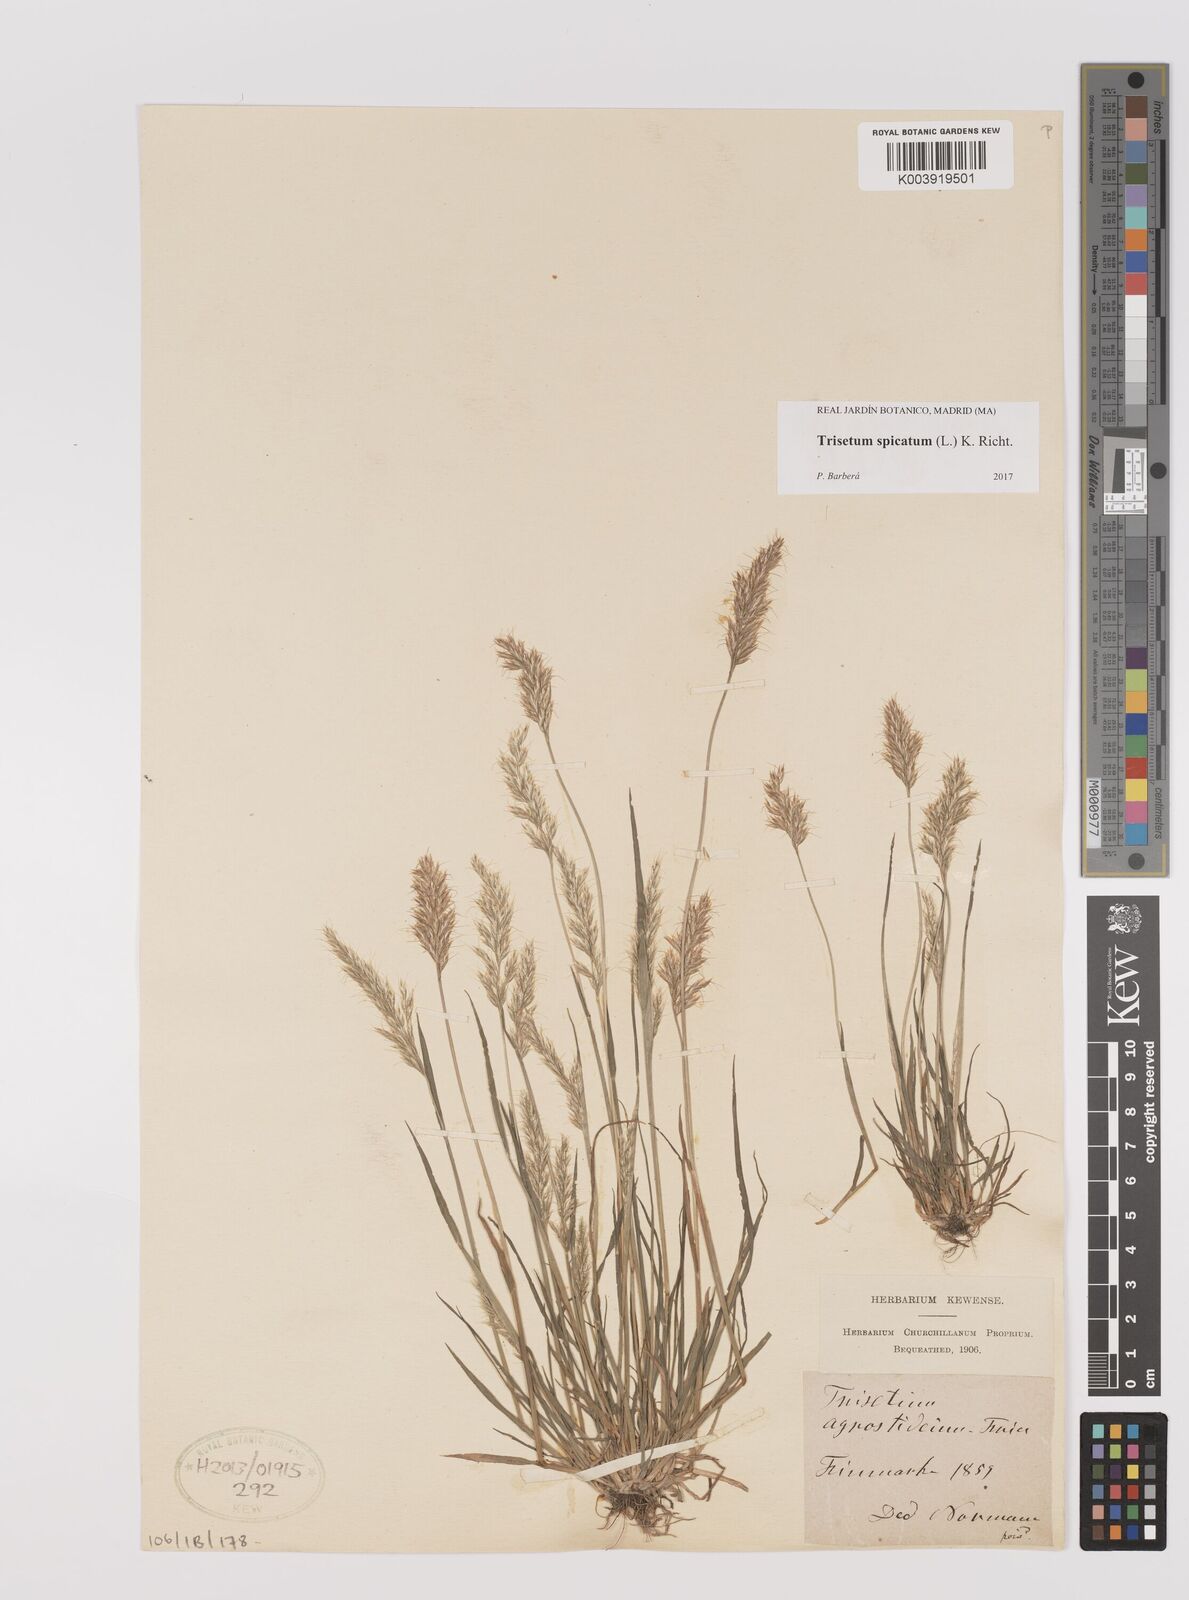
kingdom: Plantae
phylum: Tracheophyta
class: Liliopsida
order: Poales
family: Poaceae
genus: Koeleria
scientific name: Koeleria spicata
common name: Mountain trisetum
